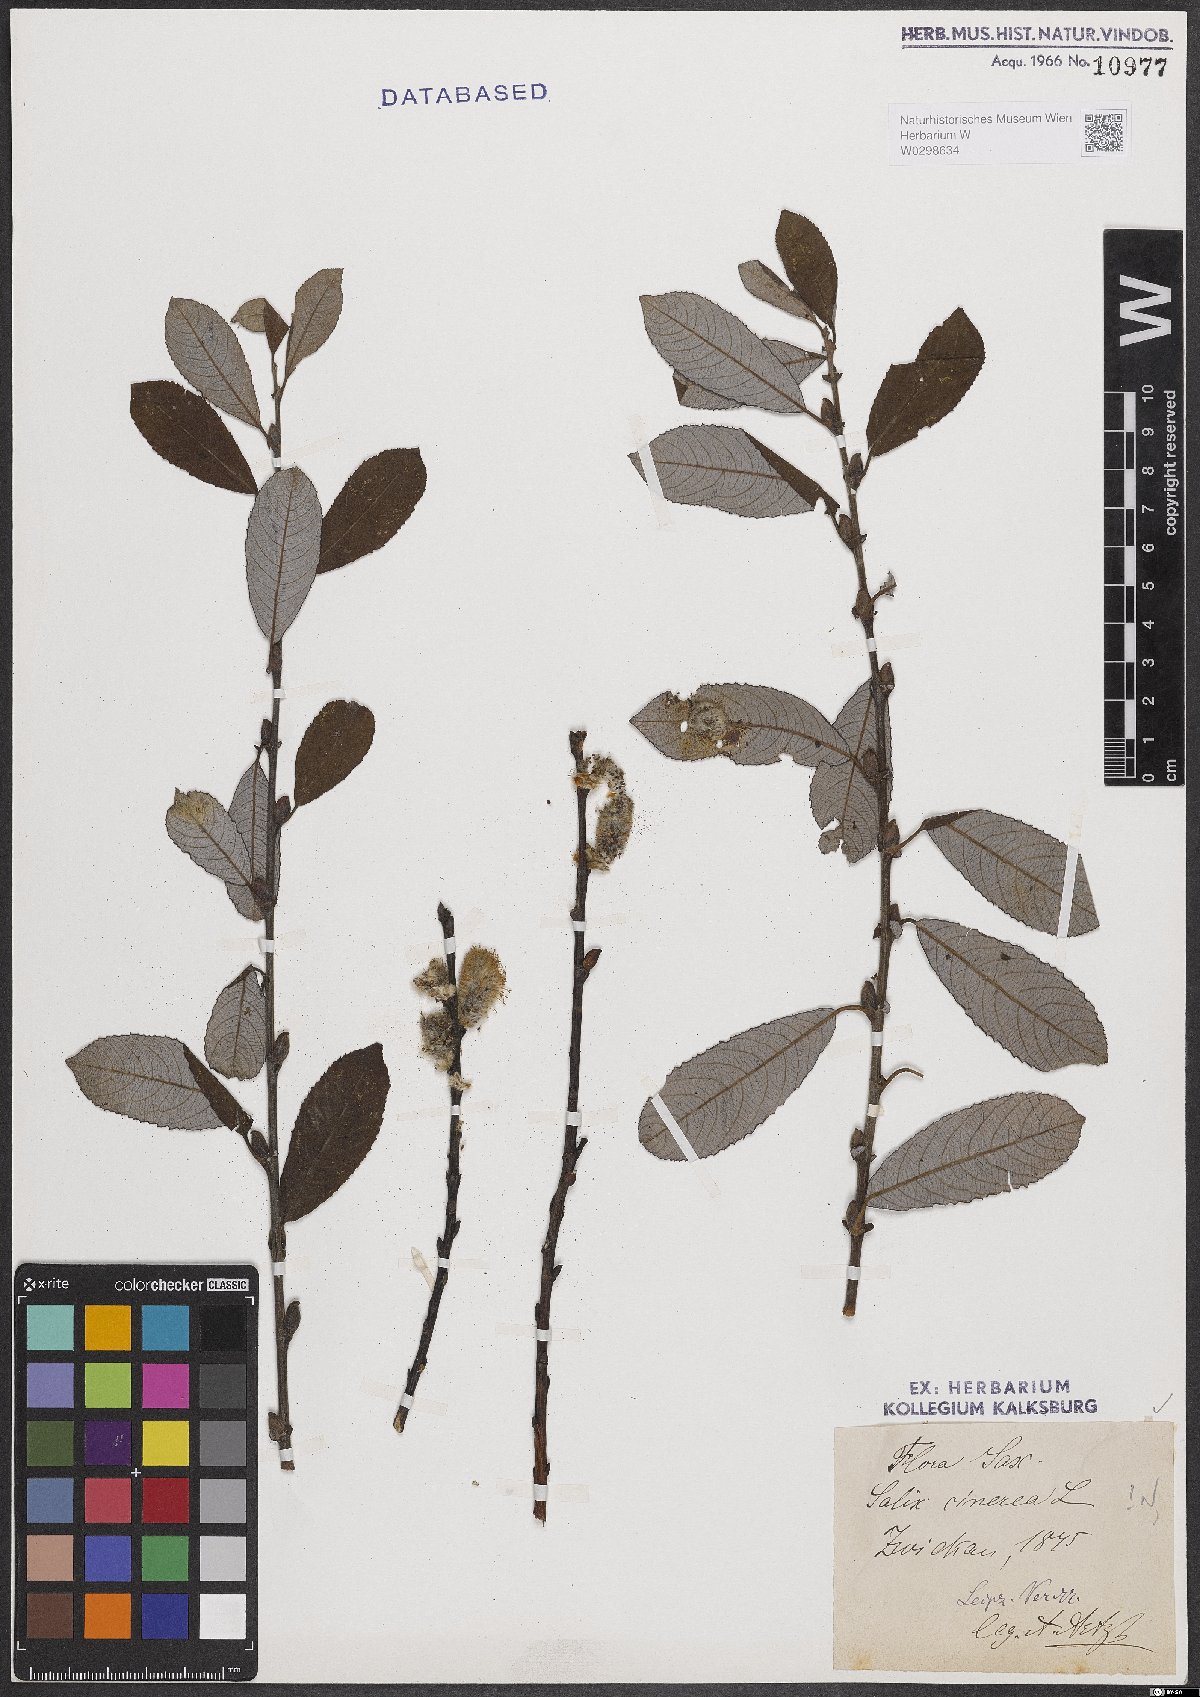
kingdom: Plantae
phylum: Tracheophyta
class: Magnoliopsida
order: Malpighiales
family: Salicaceae
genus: Salix
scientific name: Salix cinerea
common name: Common sallow
